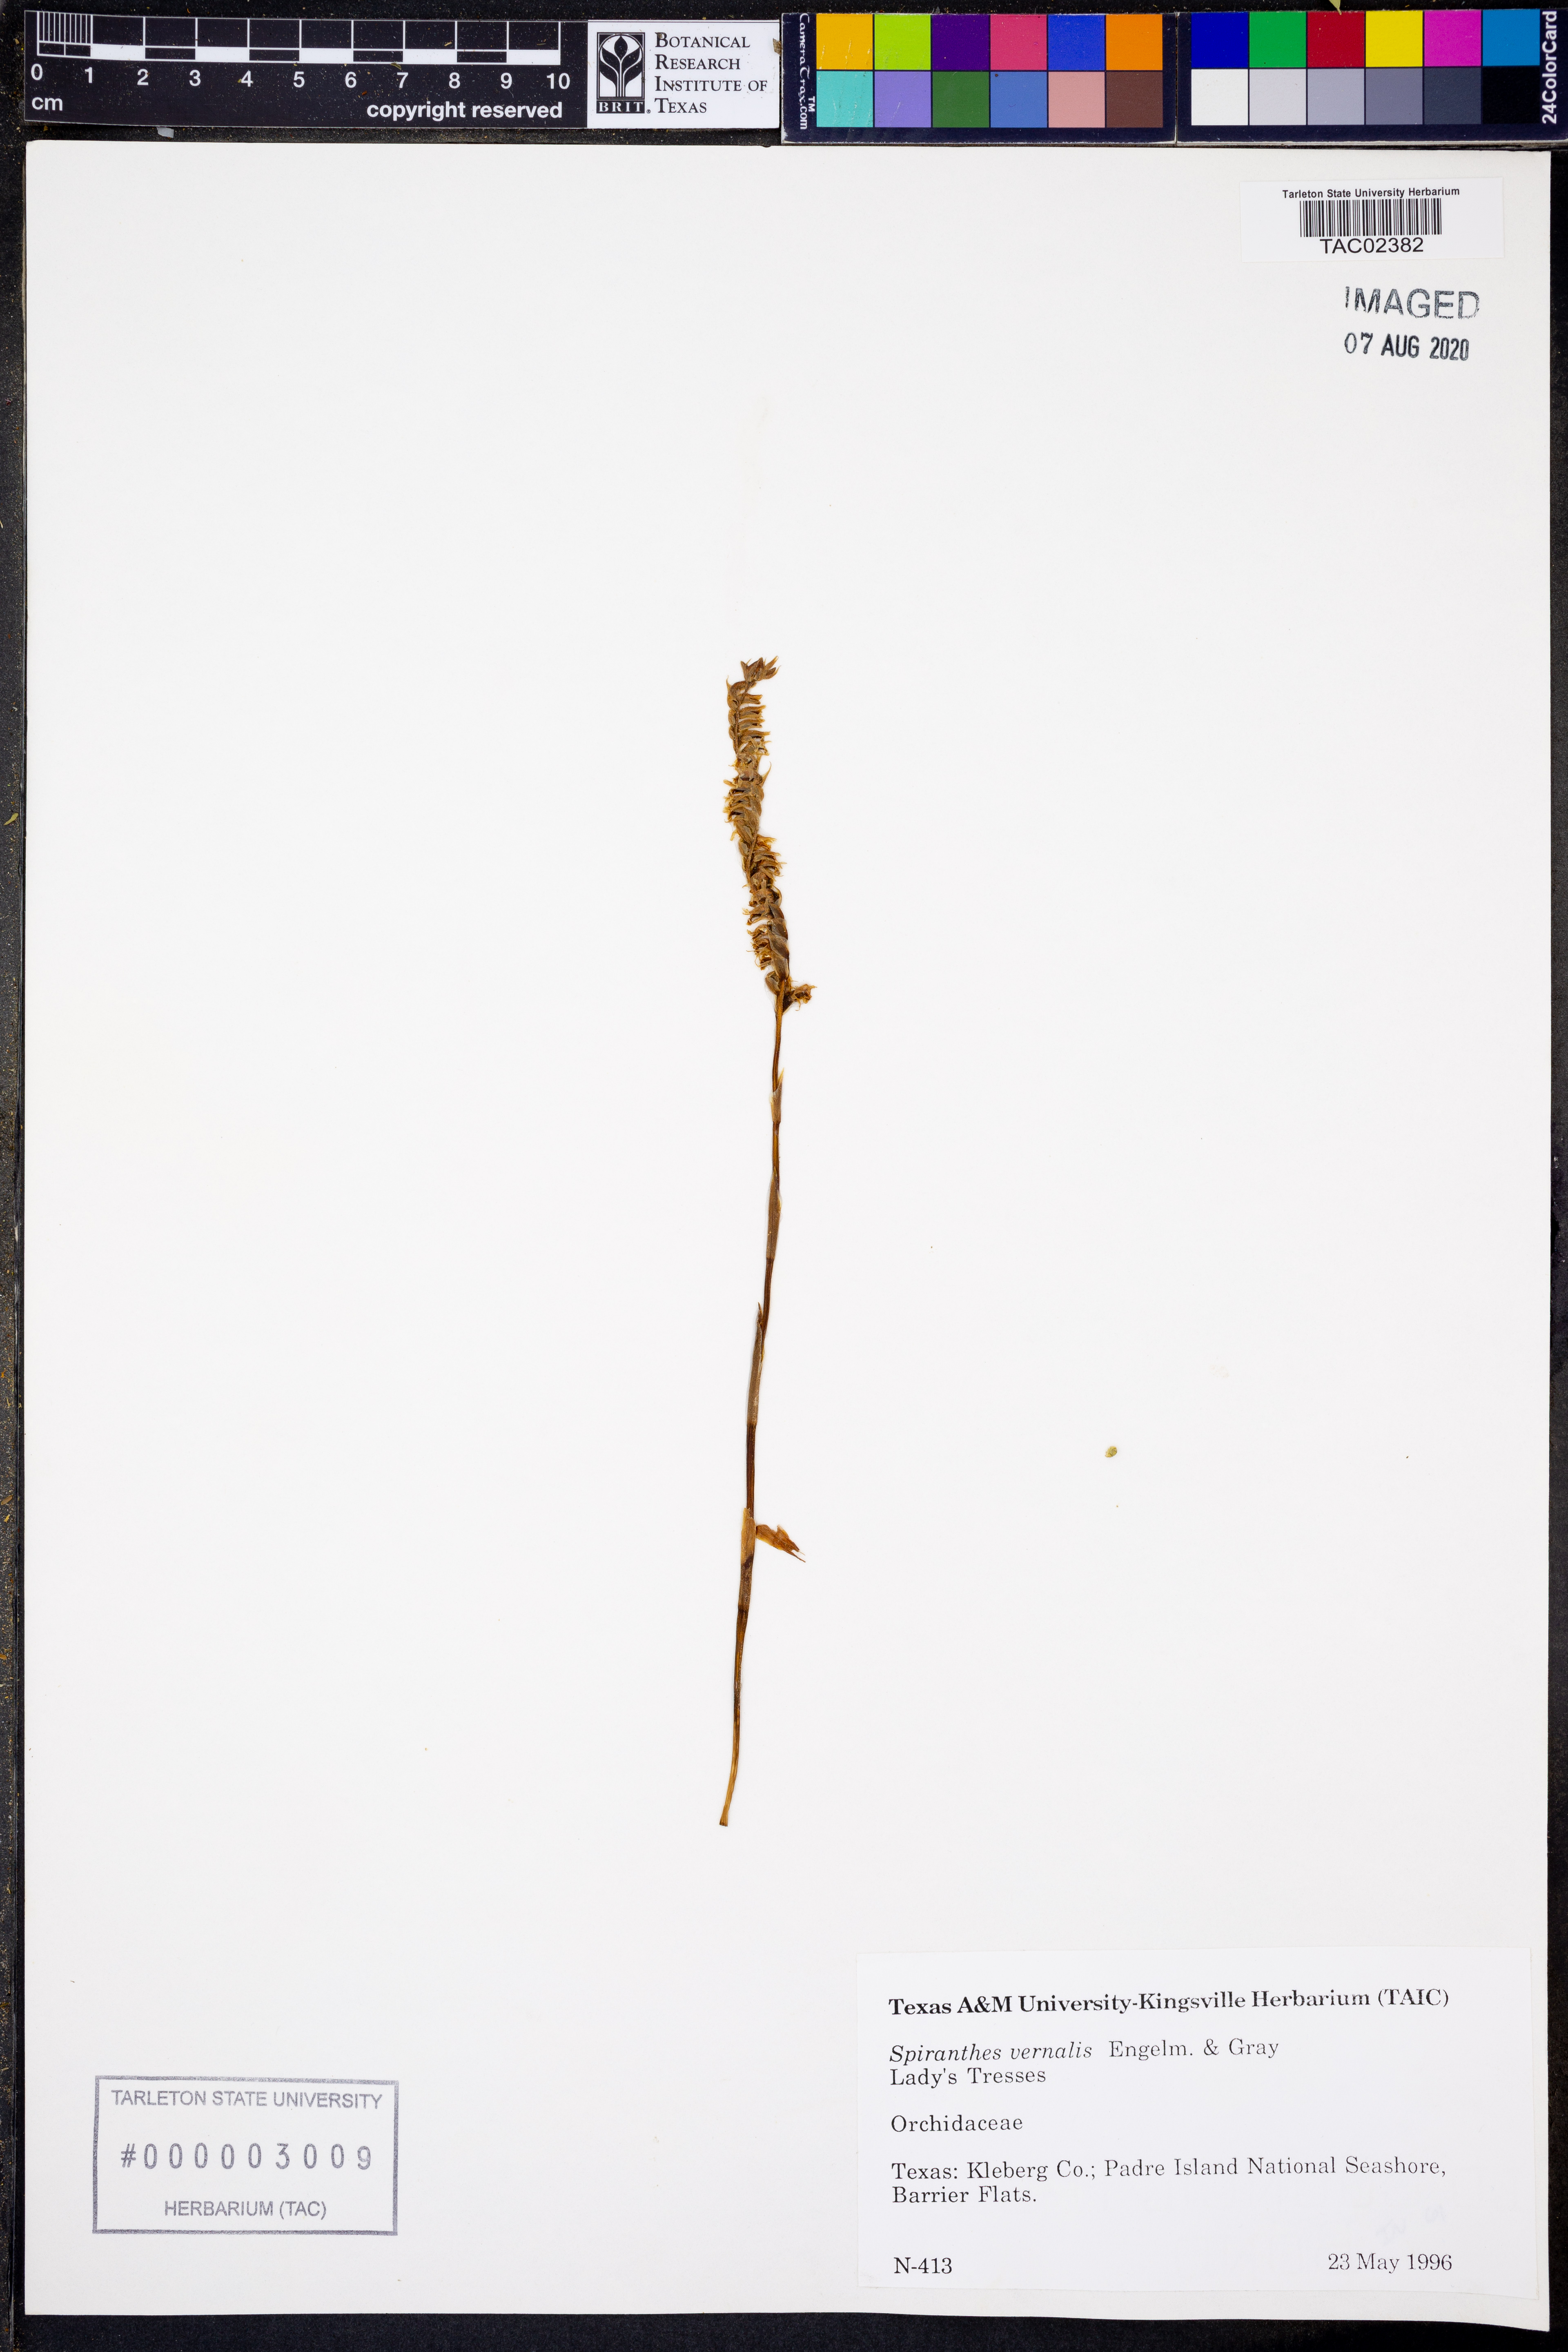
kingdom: Plantae
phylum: Tracheophyta
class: Liliopsida
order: Asparagales
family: Orchidaceae
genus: Spiranthes
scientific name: Spiranthes vernalis
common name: Spring ladies'-tresses
